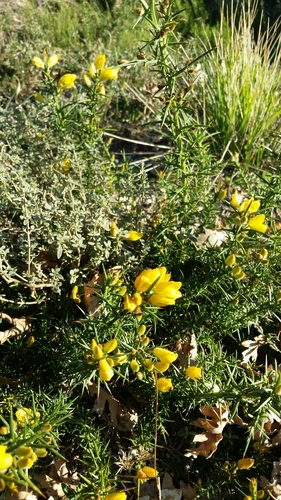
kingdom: Plantae
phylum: Tracheophyta
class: Magnoliopsida
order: Fabales
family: Fabaceae
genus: Ulex
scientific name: Ulex europaeus
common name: Common gorse
